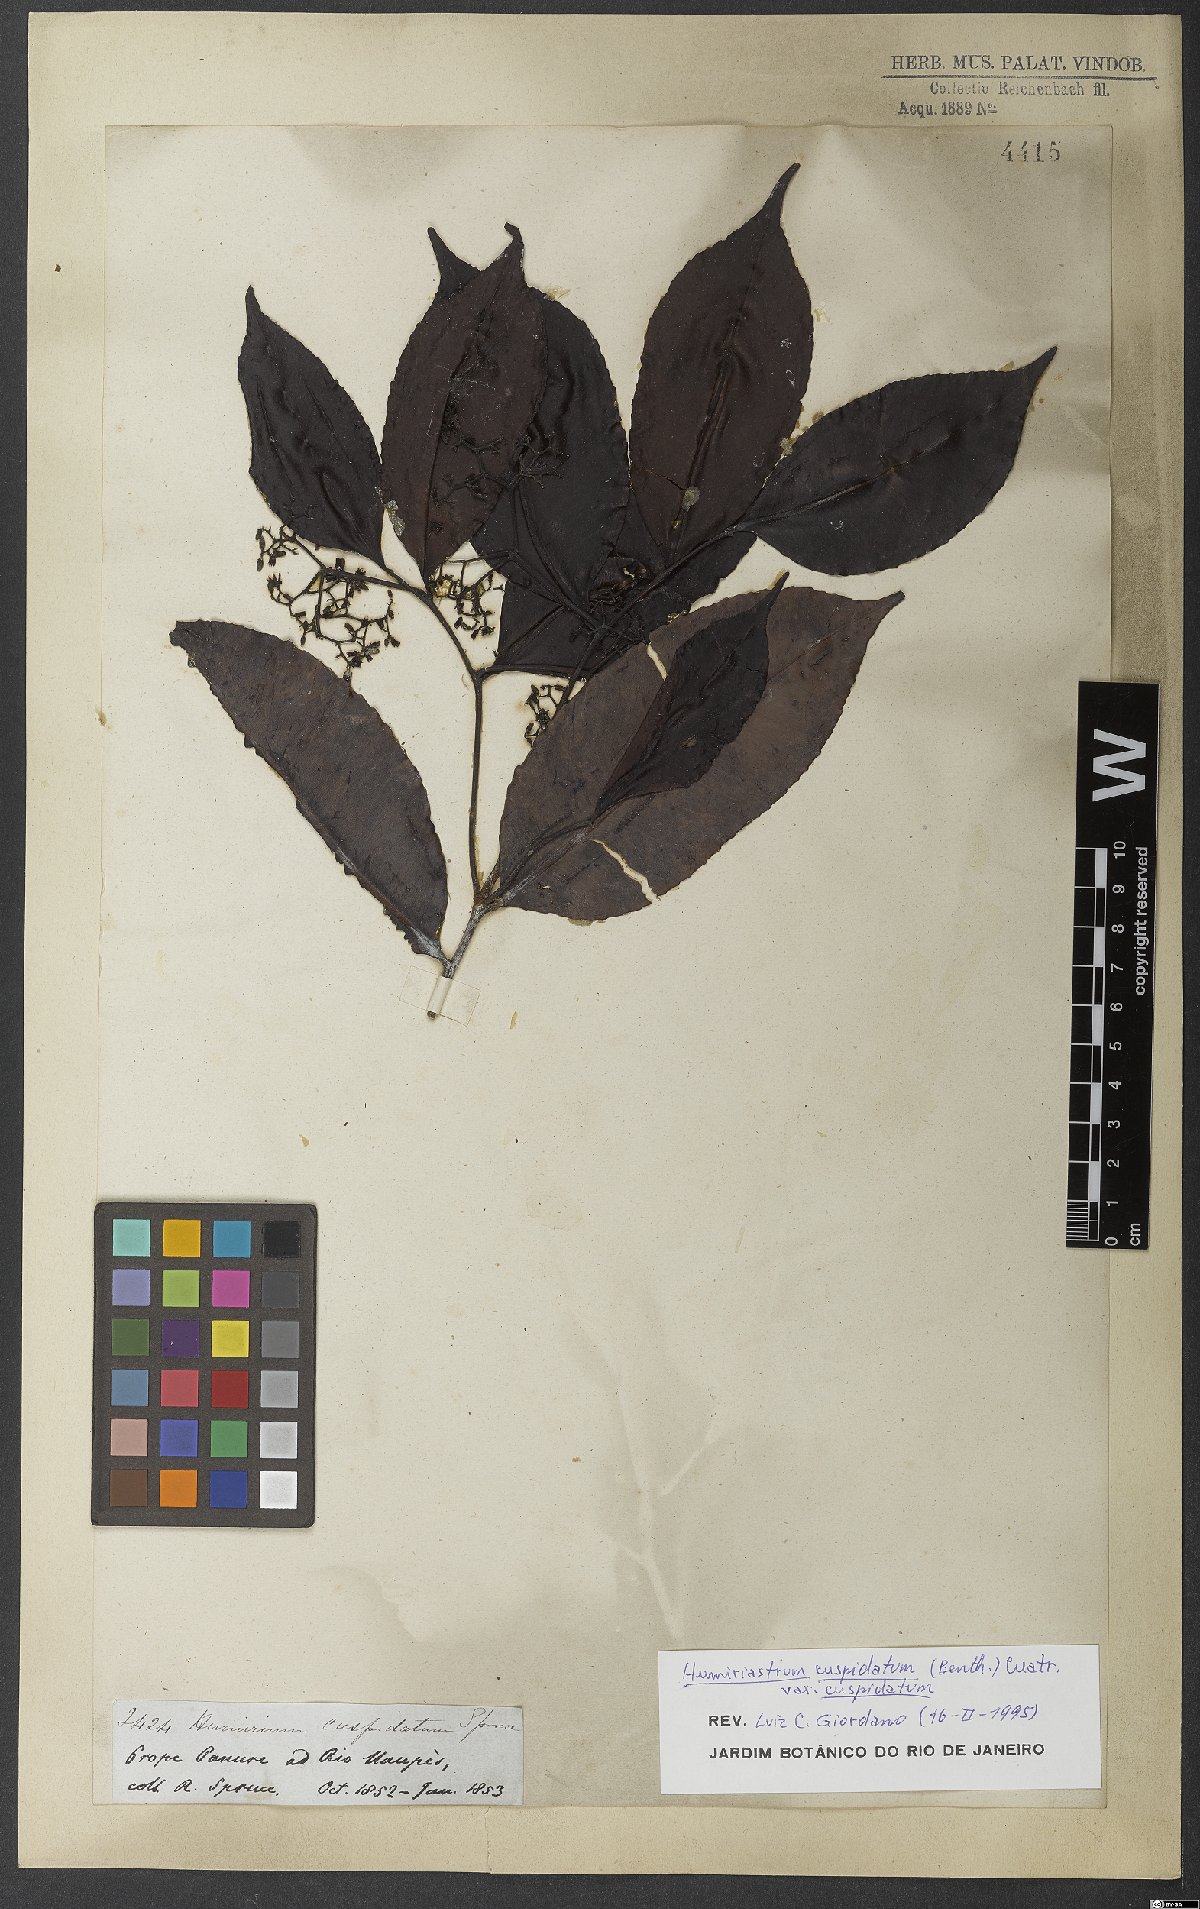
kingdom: Plantae
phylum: Tracheophyta
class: Magnoliopsida
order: Malpighiales
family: Humiriaceae
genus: Humiriastrum
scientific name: Humiriastrum cuspidatum
